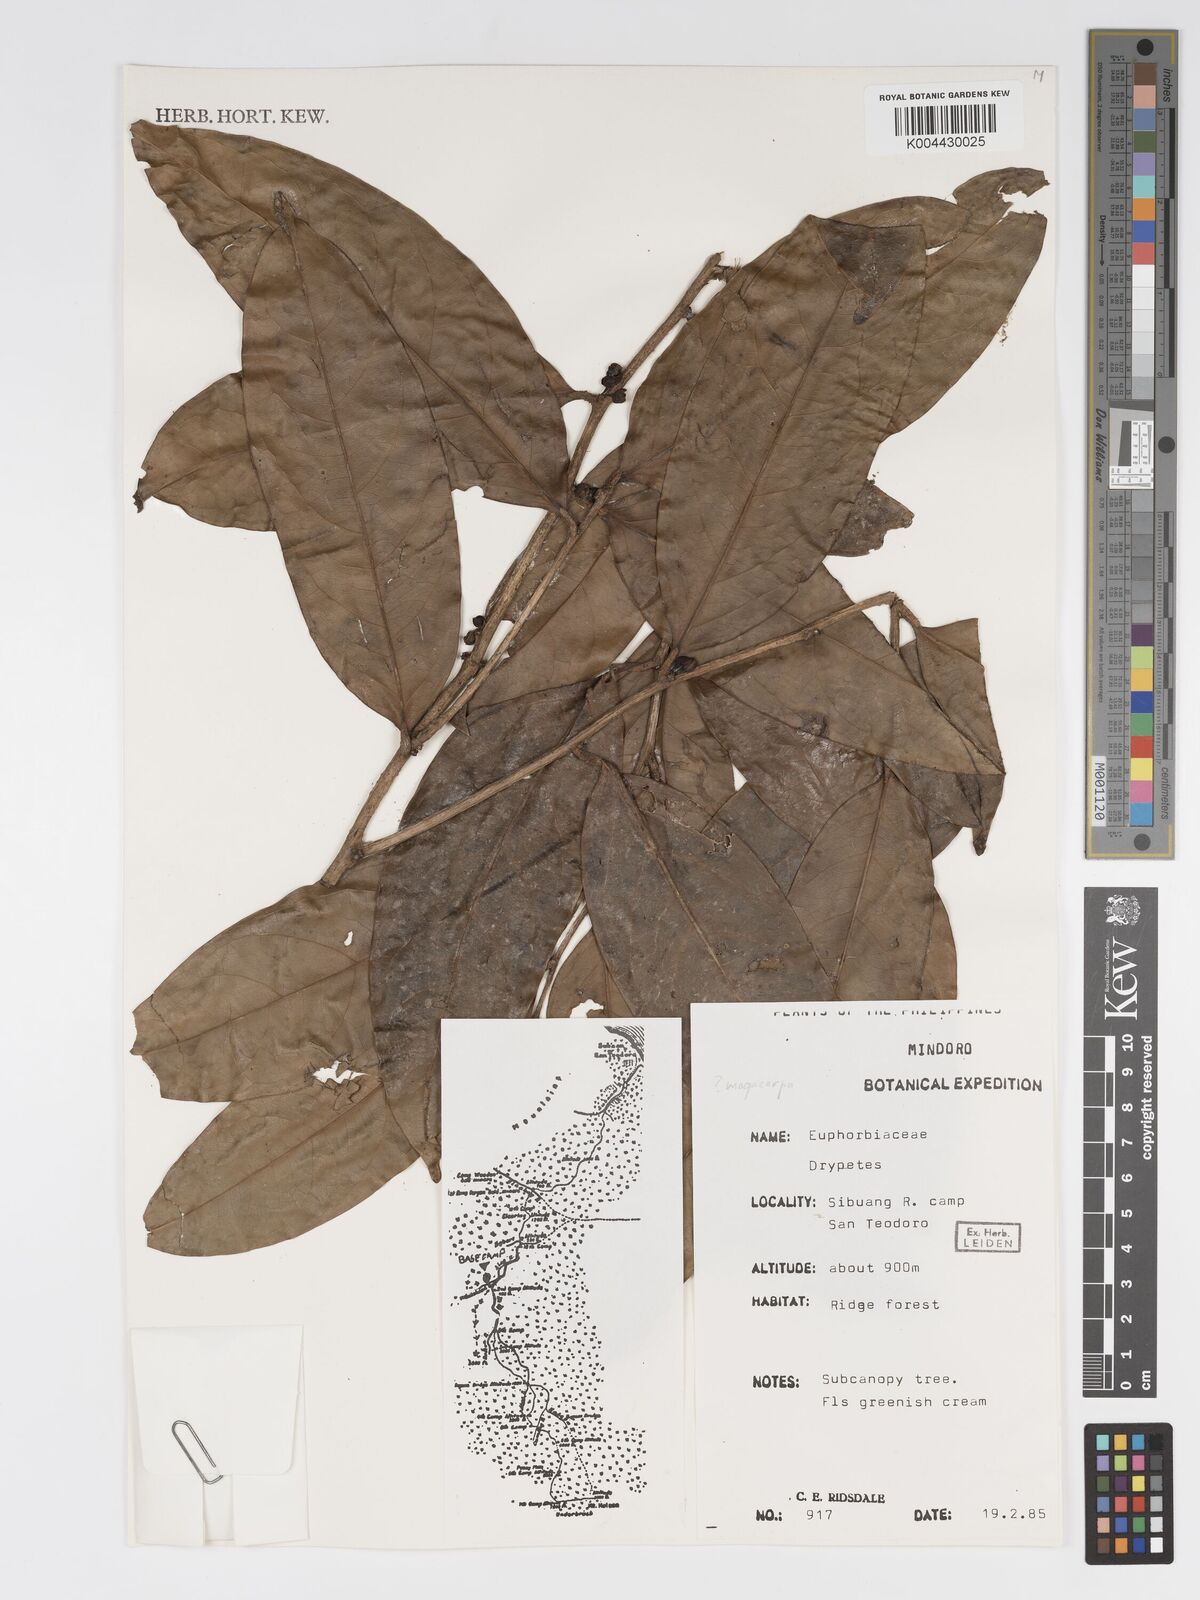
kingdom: Plantae
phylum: Tracheophyta
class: Magnoliopsida
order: Malpighiales
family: Putranjivaceae
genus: Drypetes
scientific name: Drypetes grandifolia
